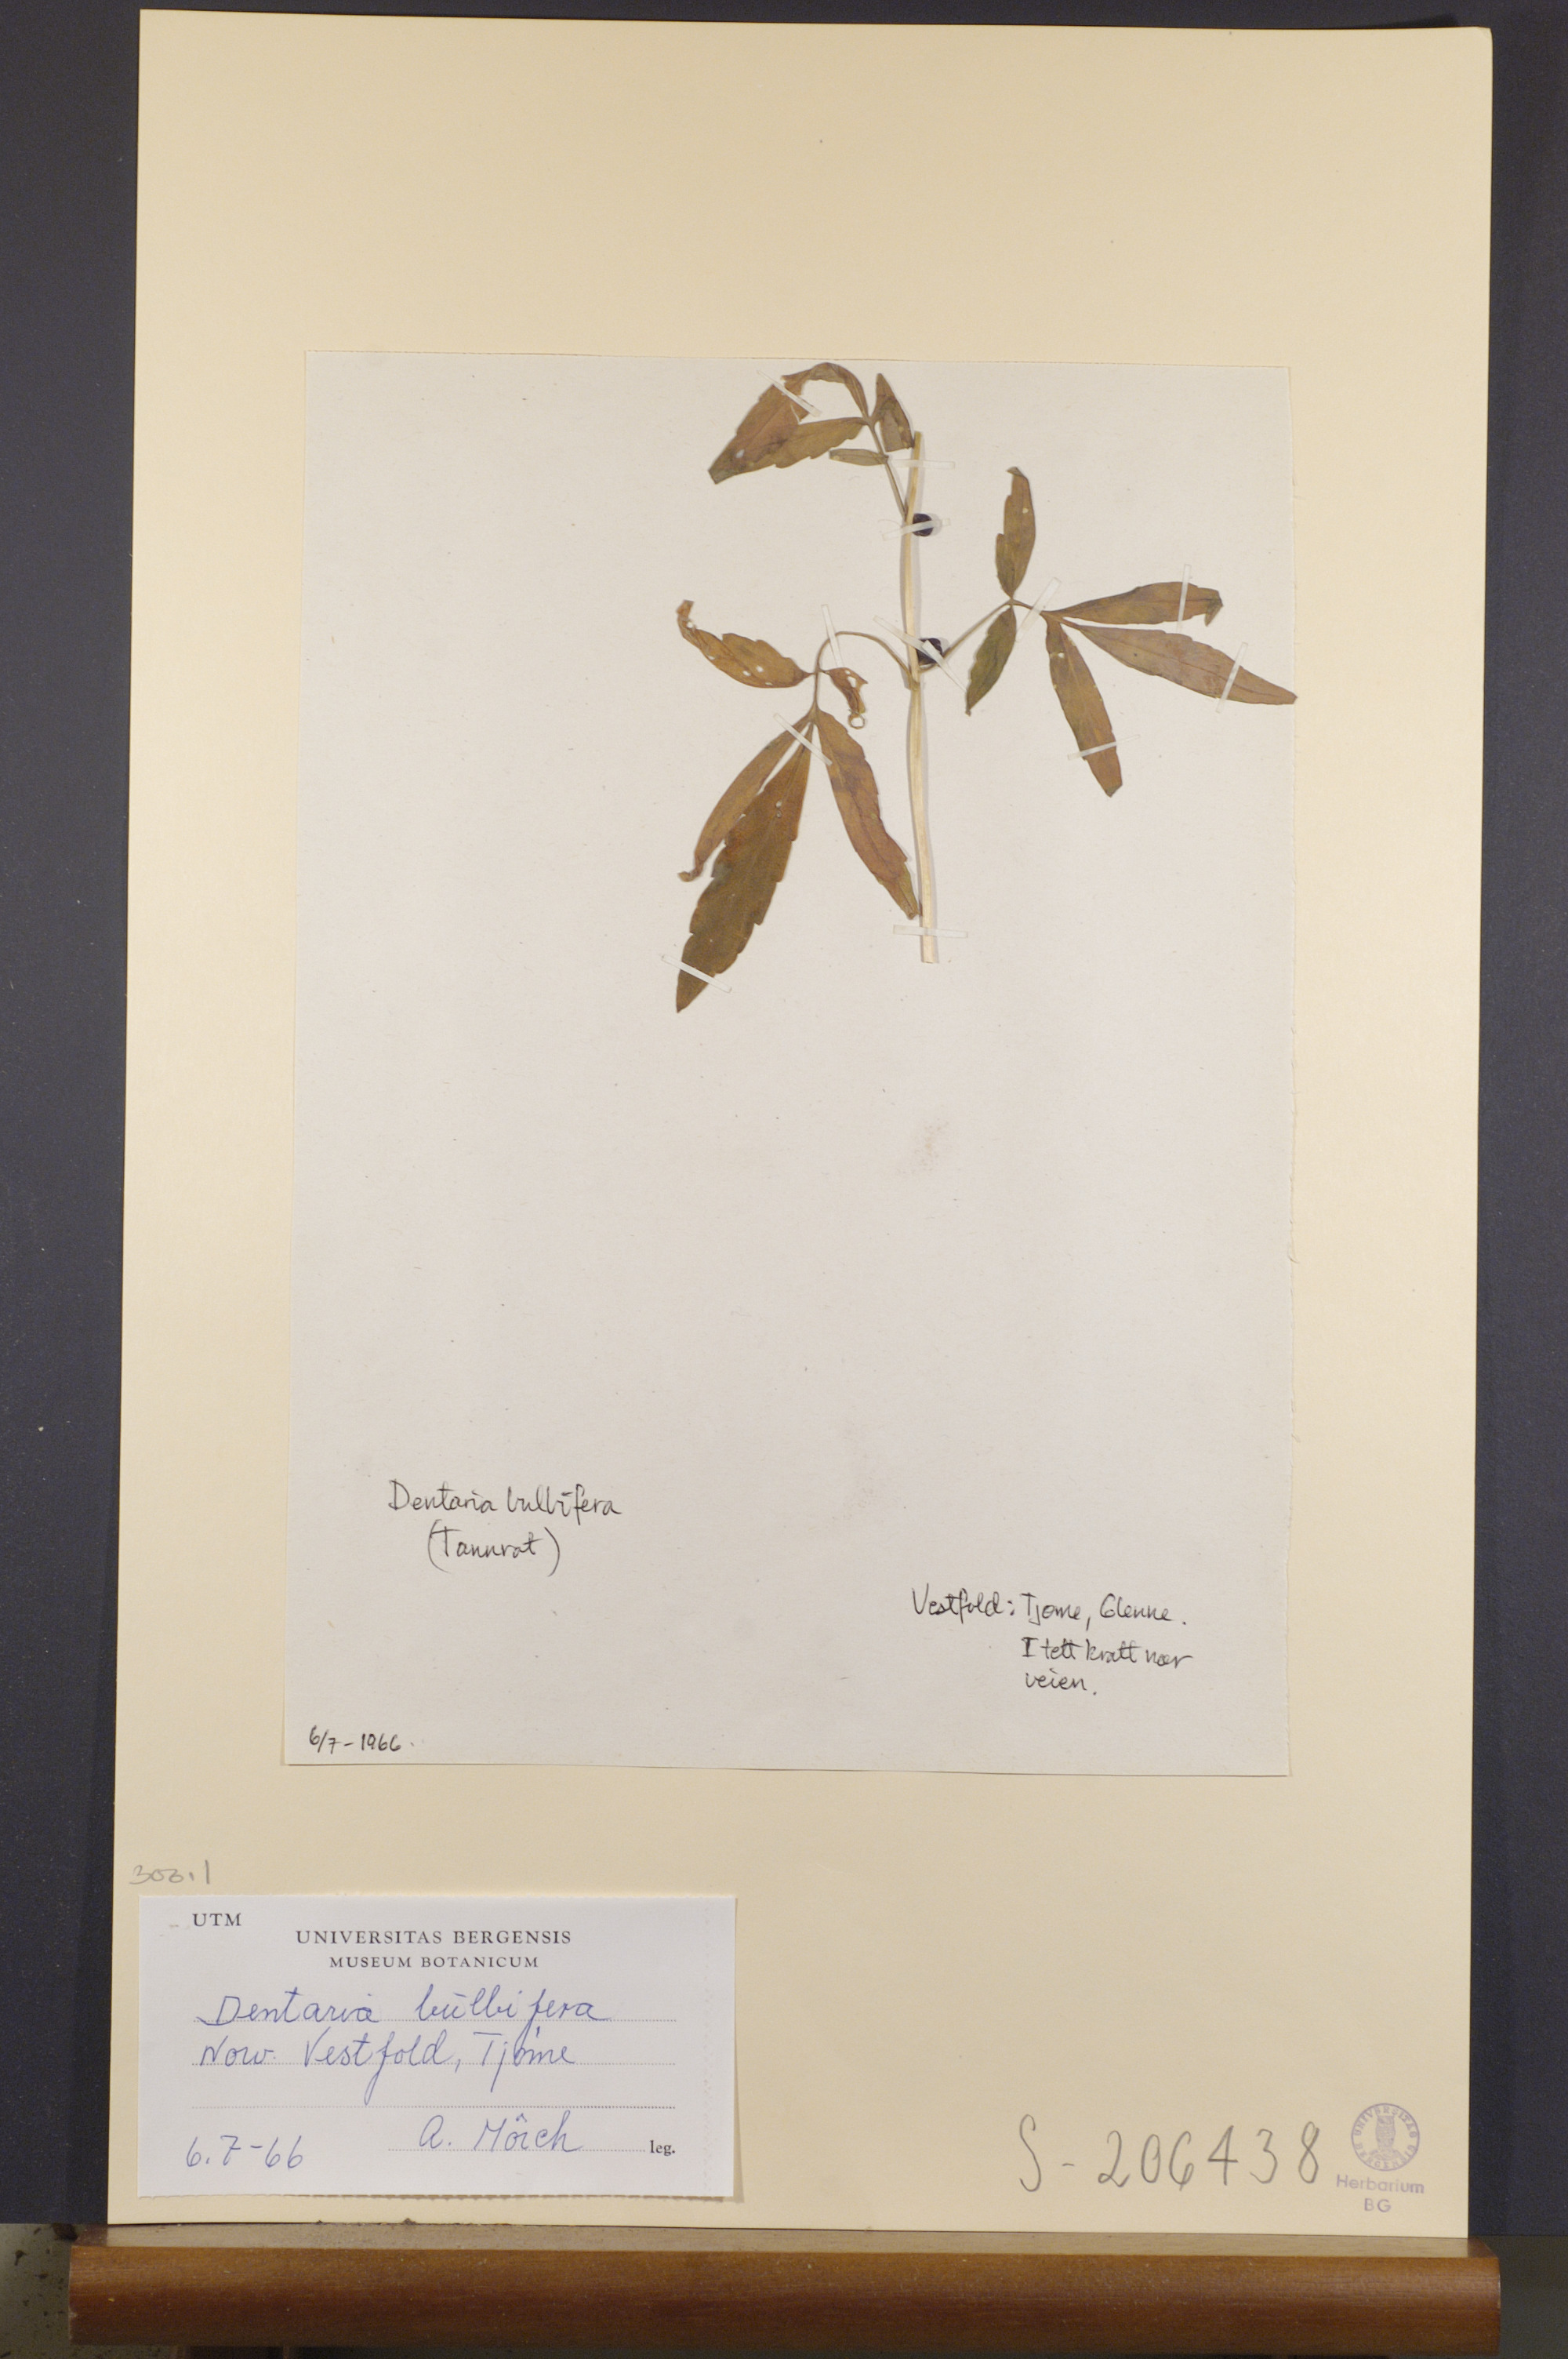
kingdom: Plantae
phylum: Tracheophyta
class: Magnoliopsida
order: Brassicales
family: Brassicaceae
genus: Cardamine
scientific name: Cardamine bulbifera
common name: Coralroot bittercress
